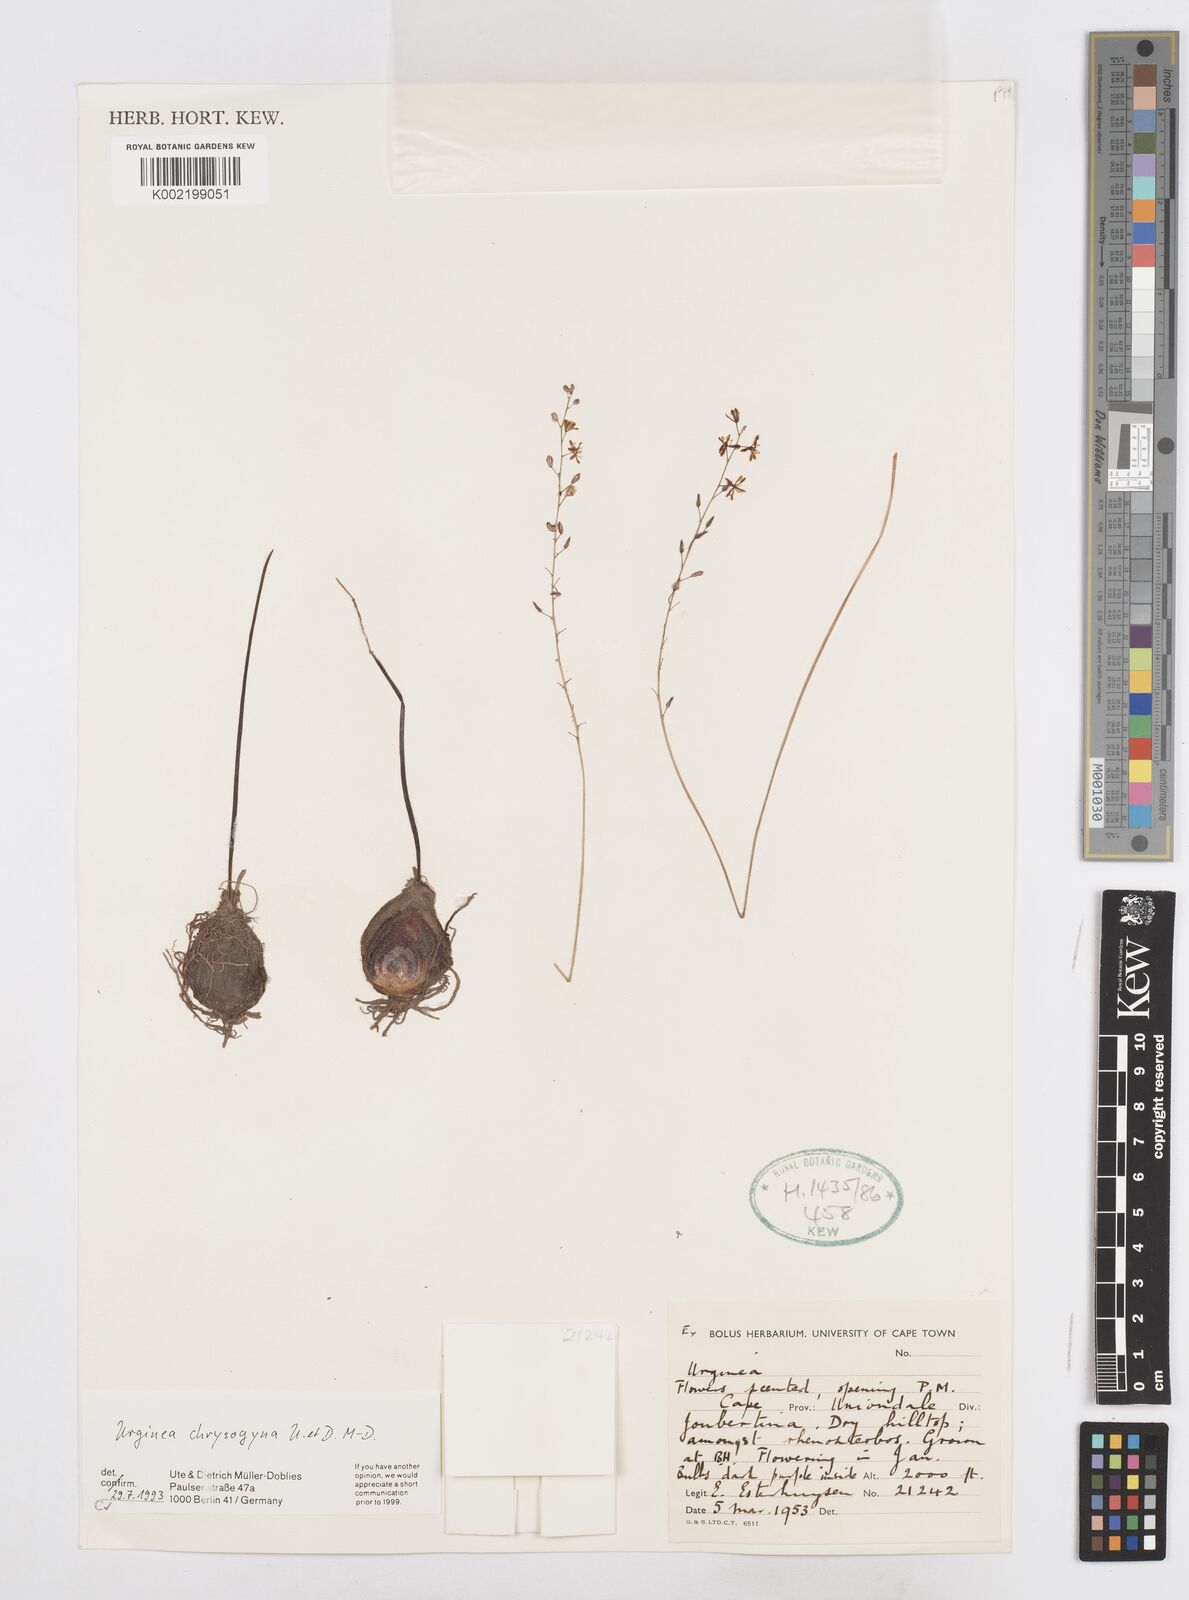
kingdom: Plantae
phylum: Tracheophyta
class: Liliopsida
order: Asparagales
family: Asparagaceae
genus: Drimia
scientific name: Drimia
